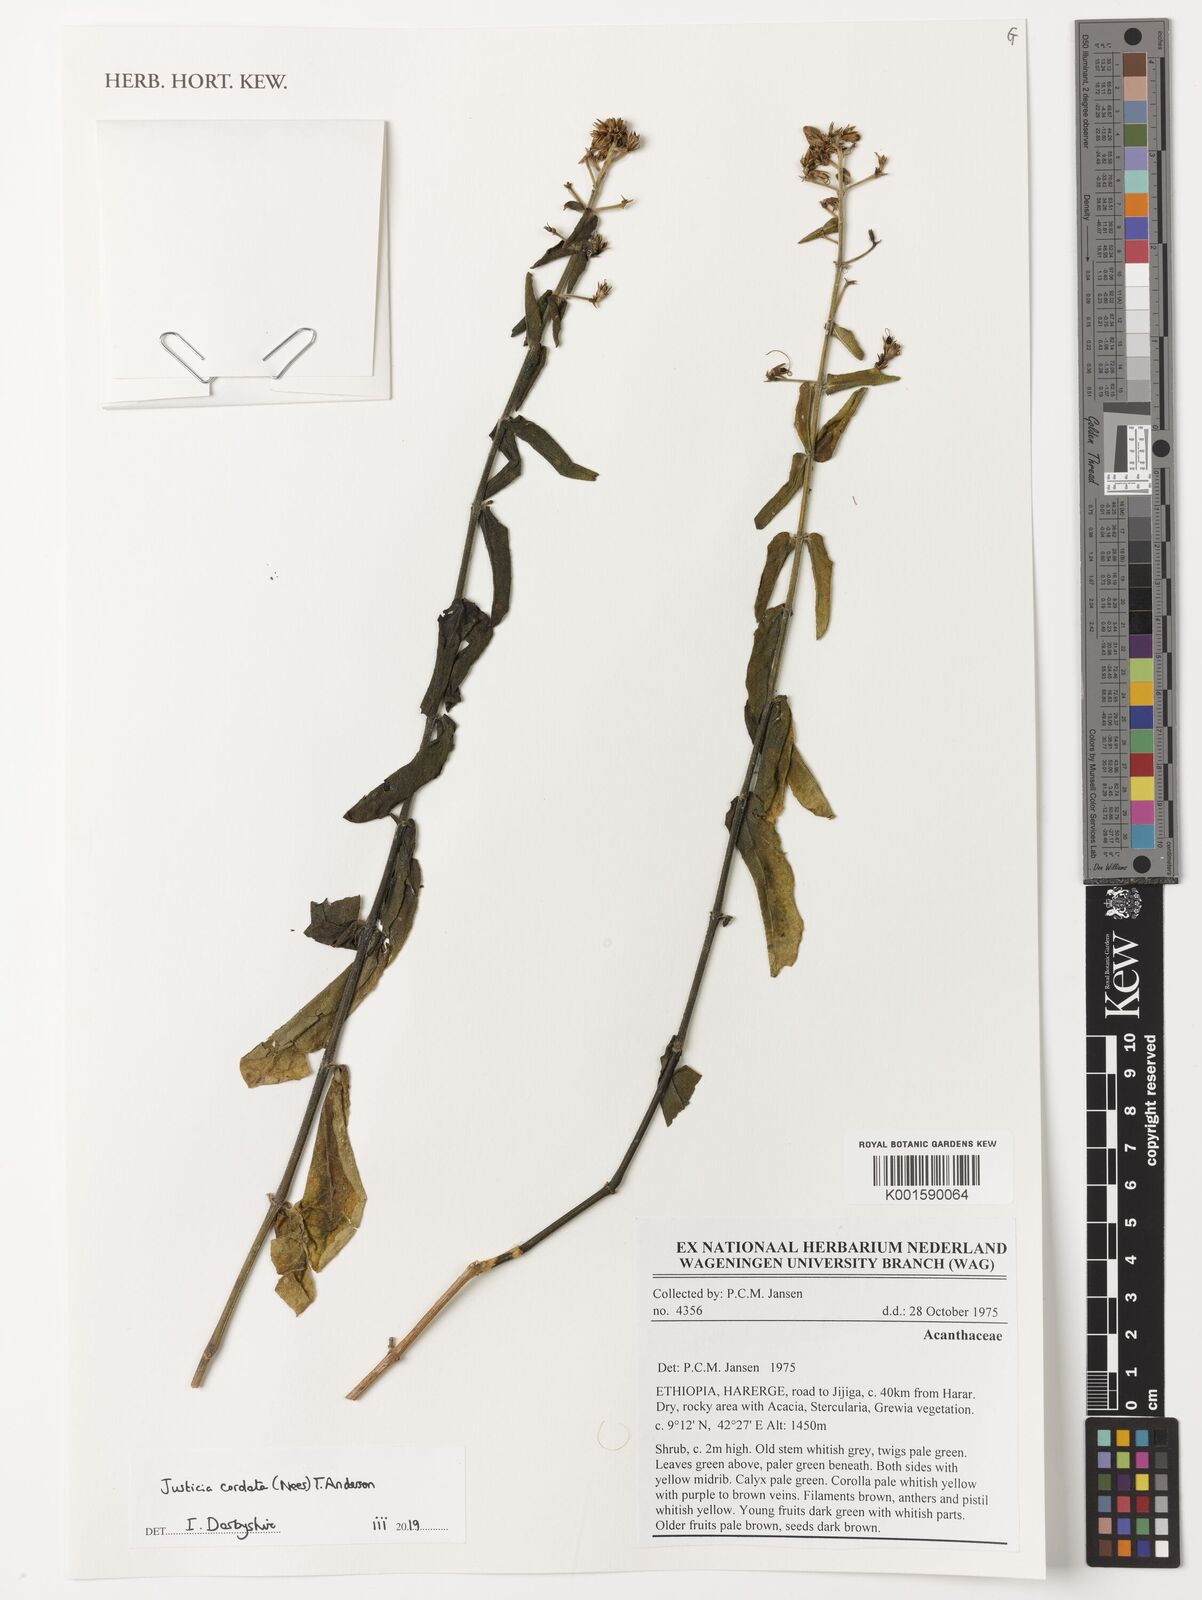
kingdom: Plantae
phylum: Tracheophyta
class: Magnoliopsida
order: Lamiales
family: Acanthaceae
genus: Justicia
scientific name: Justicia cordata
